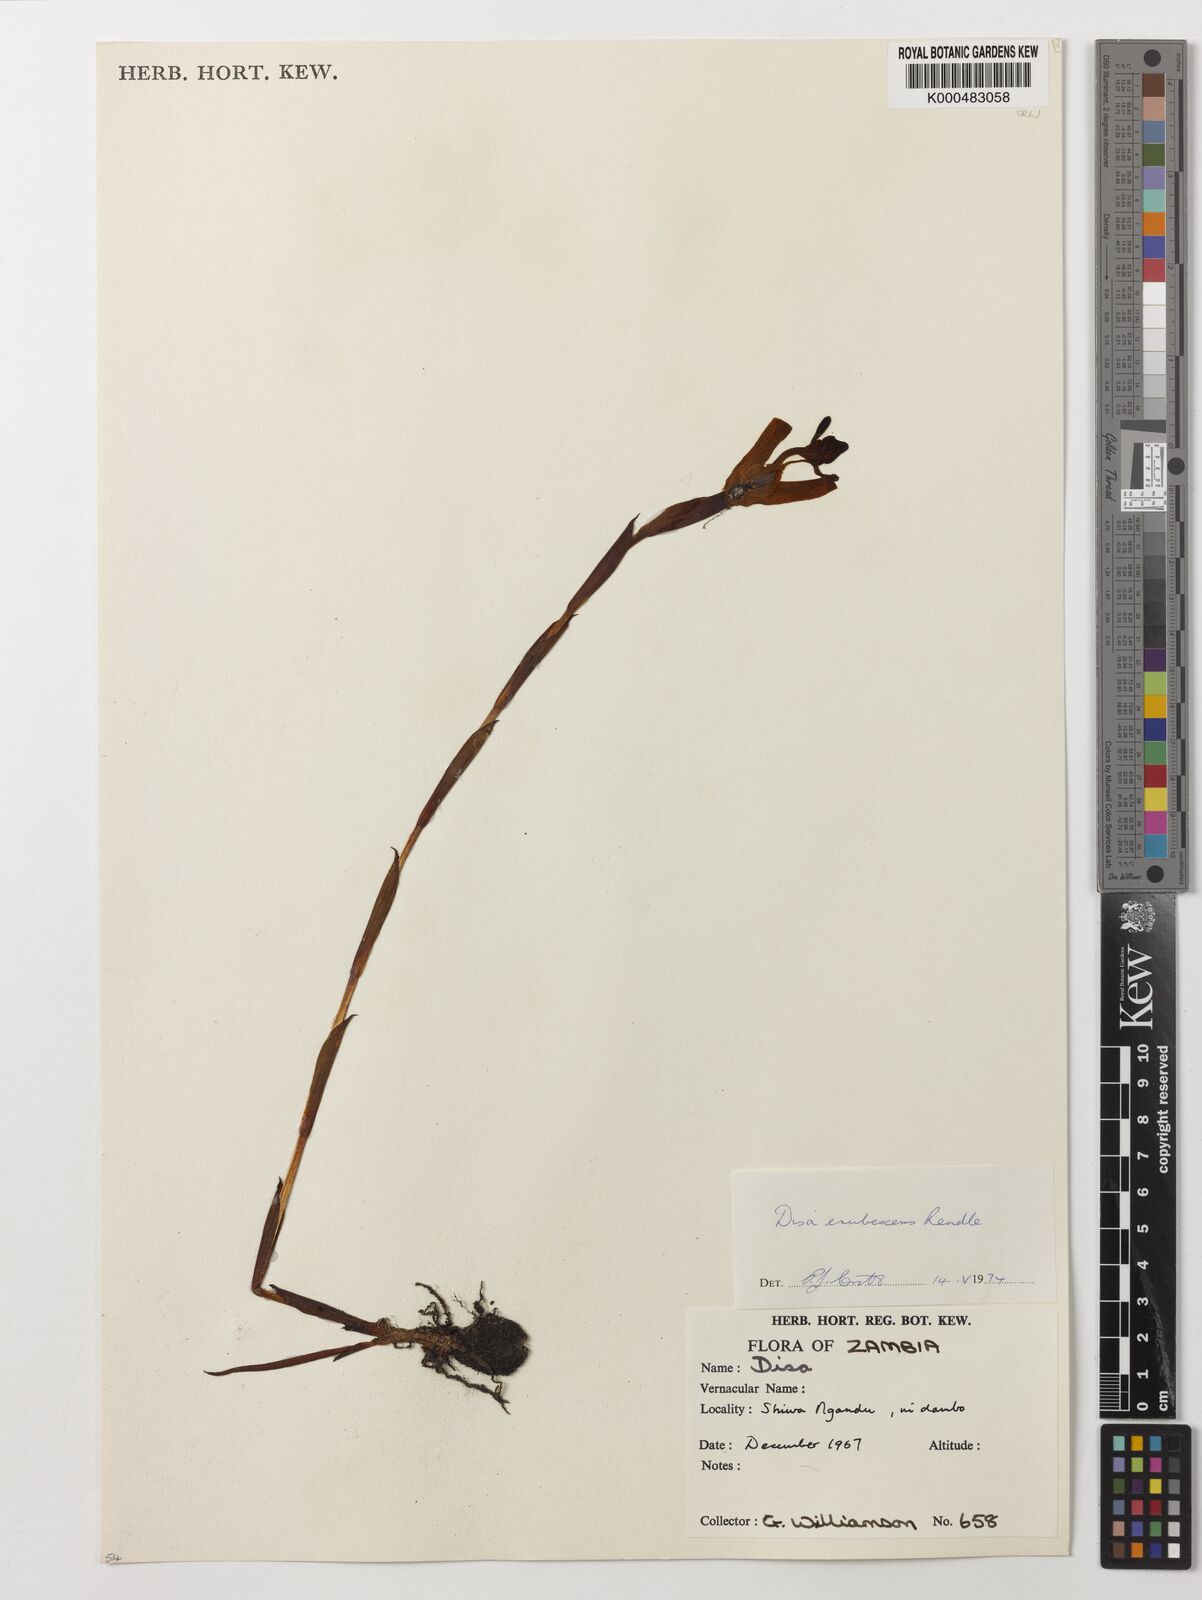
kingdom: Plantae
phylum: Tracheophyta
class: Liliopsida
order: Asparagales
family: Orchidaceae
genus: Disa
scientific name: Disa erubescens
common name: The rose disa
